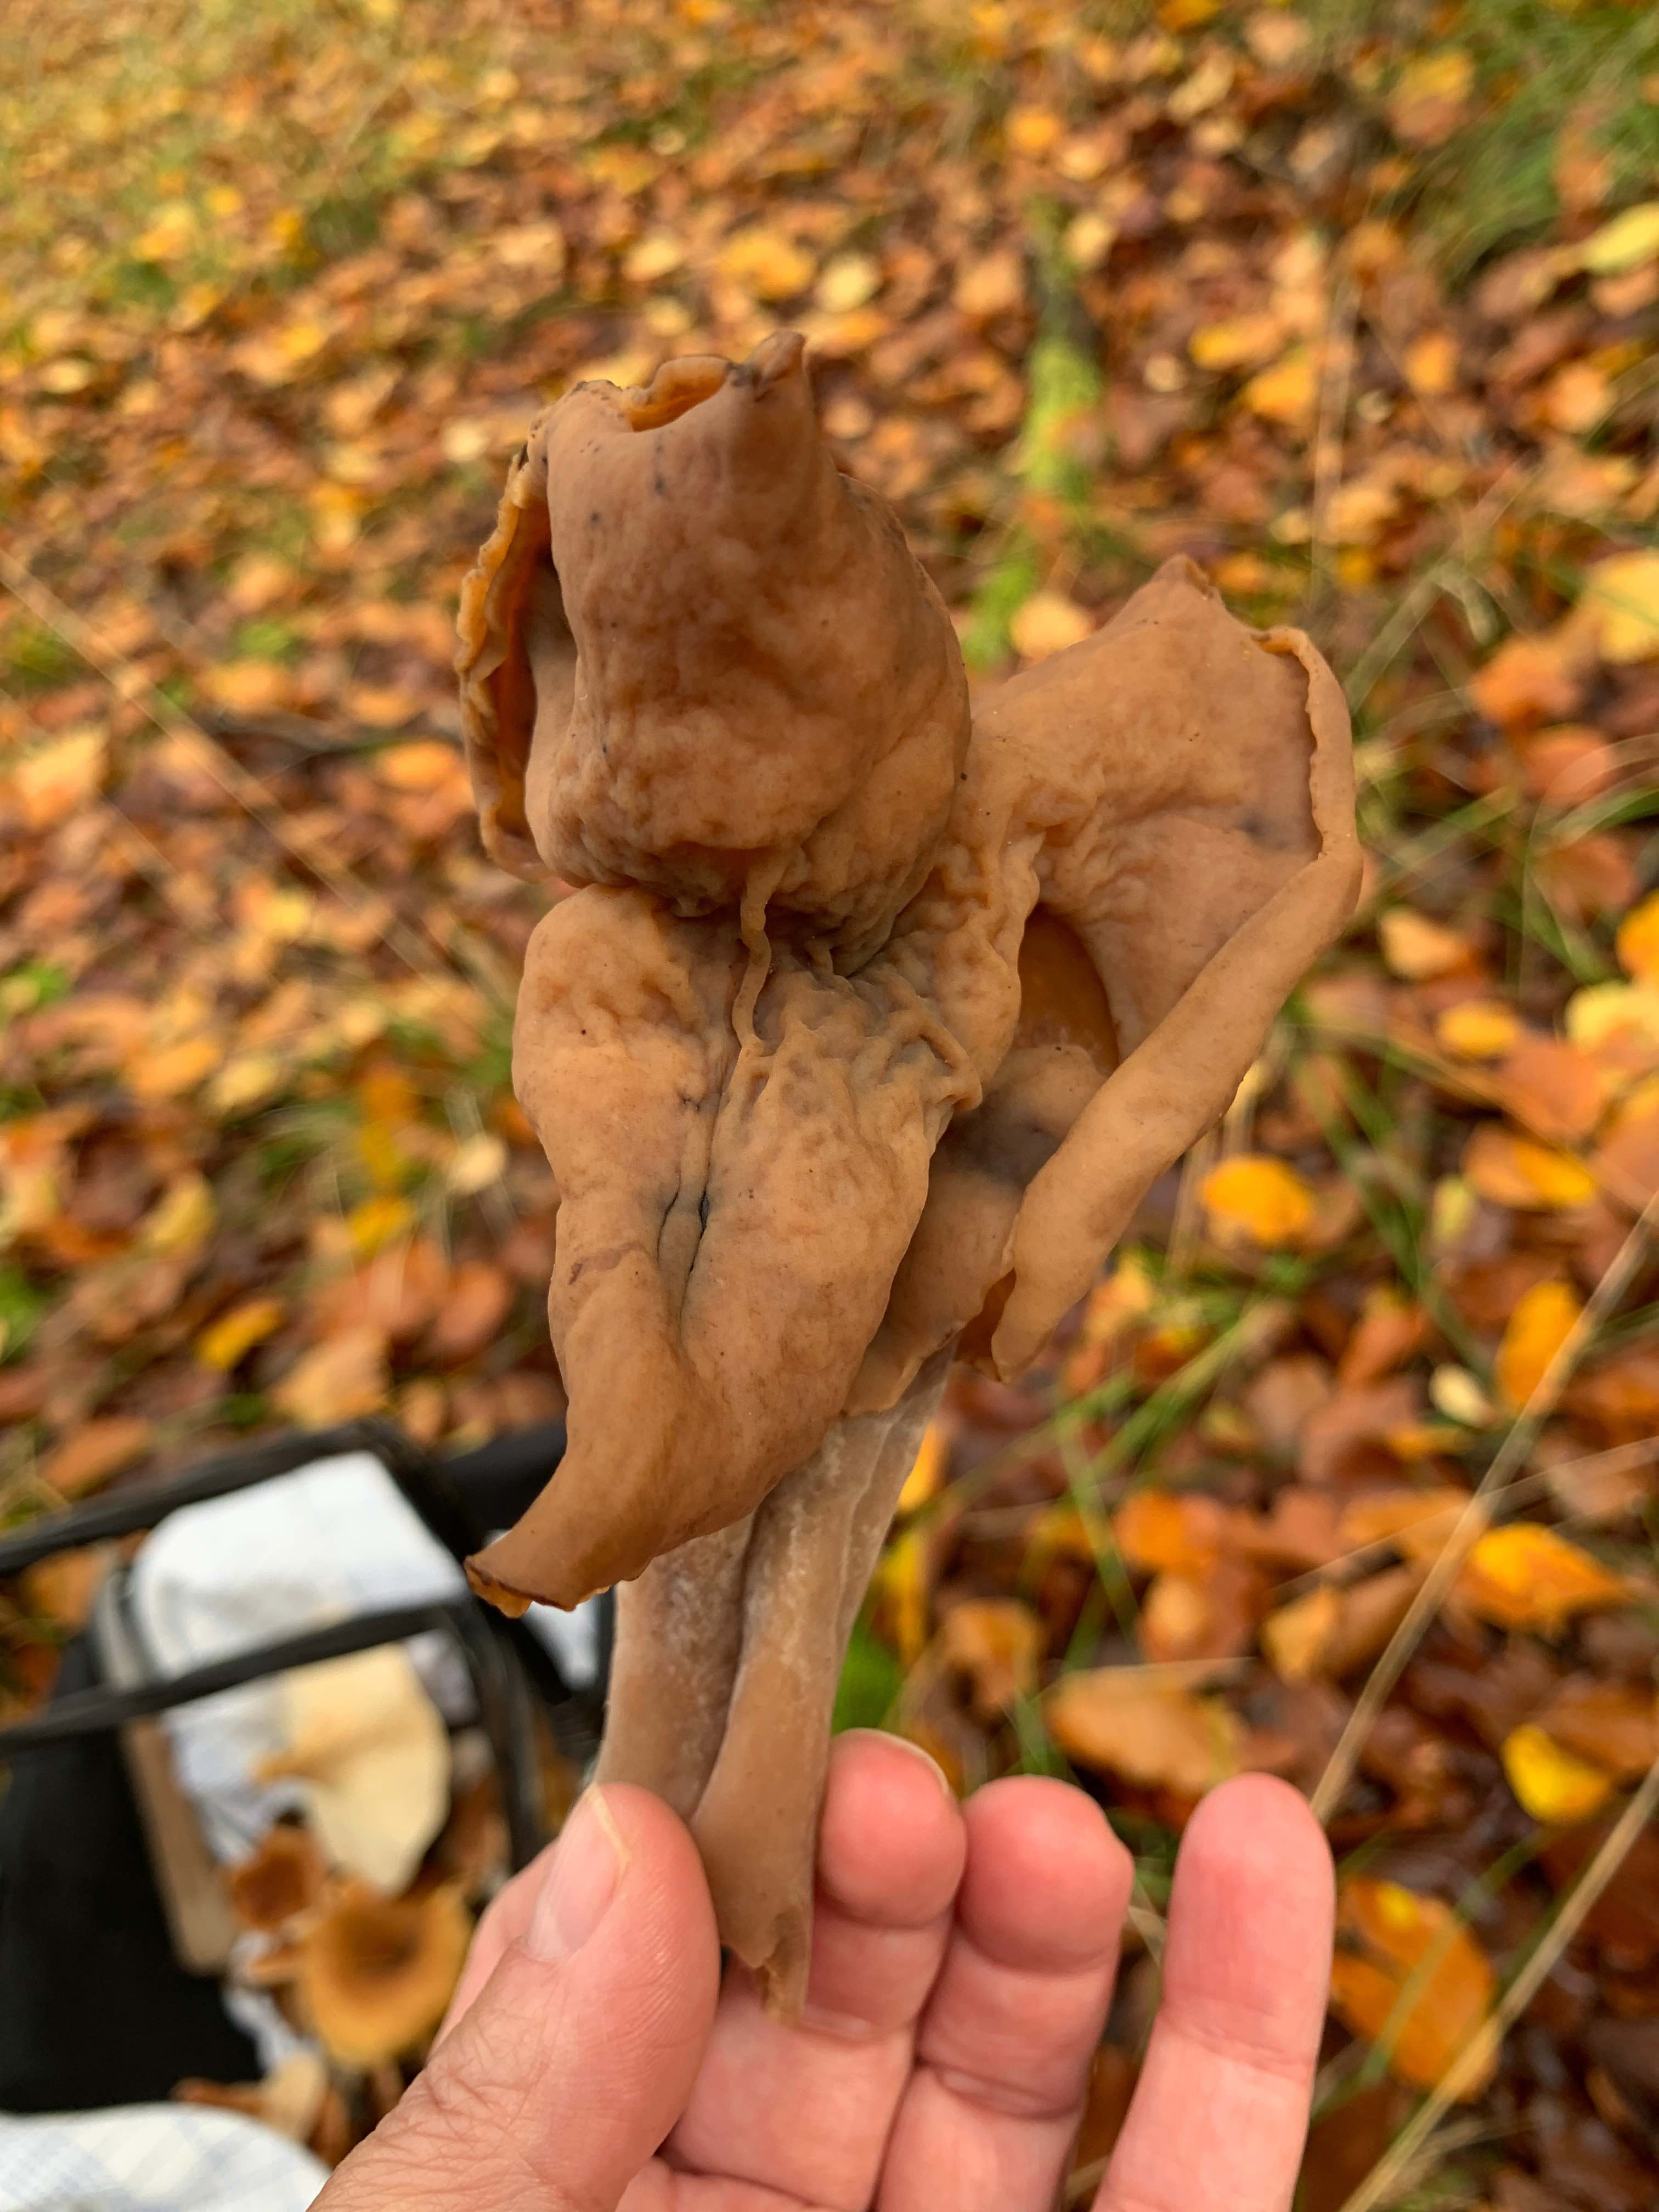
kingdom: Fungi
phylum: Ascomycota
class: Pezizomycetes
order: Pezizales
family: Discinaceae
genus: Gyromitra
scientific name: Gyromitra infula
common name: bispehue-stenmorkel
